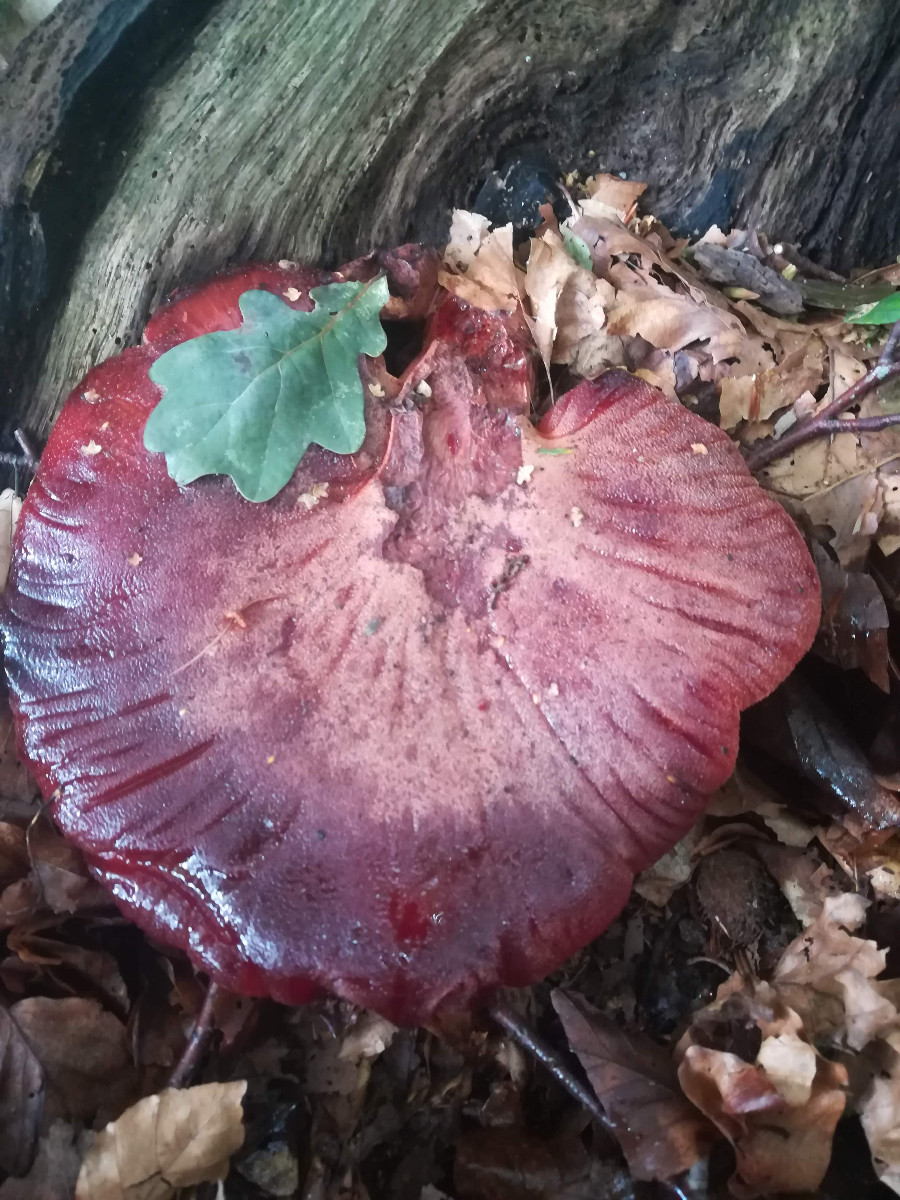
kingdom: Fungi
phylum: Basidiomycota
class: Agaricomycetes
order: Agaricales
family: Fistulinaceae
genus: Fistulina
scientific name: Fistulina hepatica
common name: oksetunge
